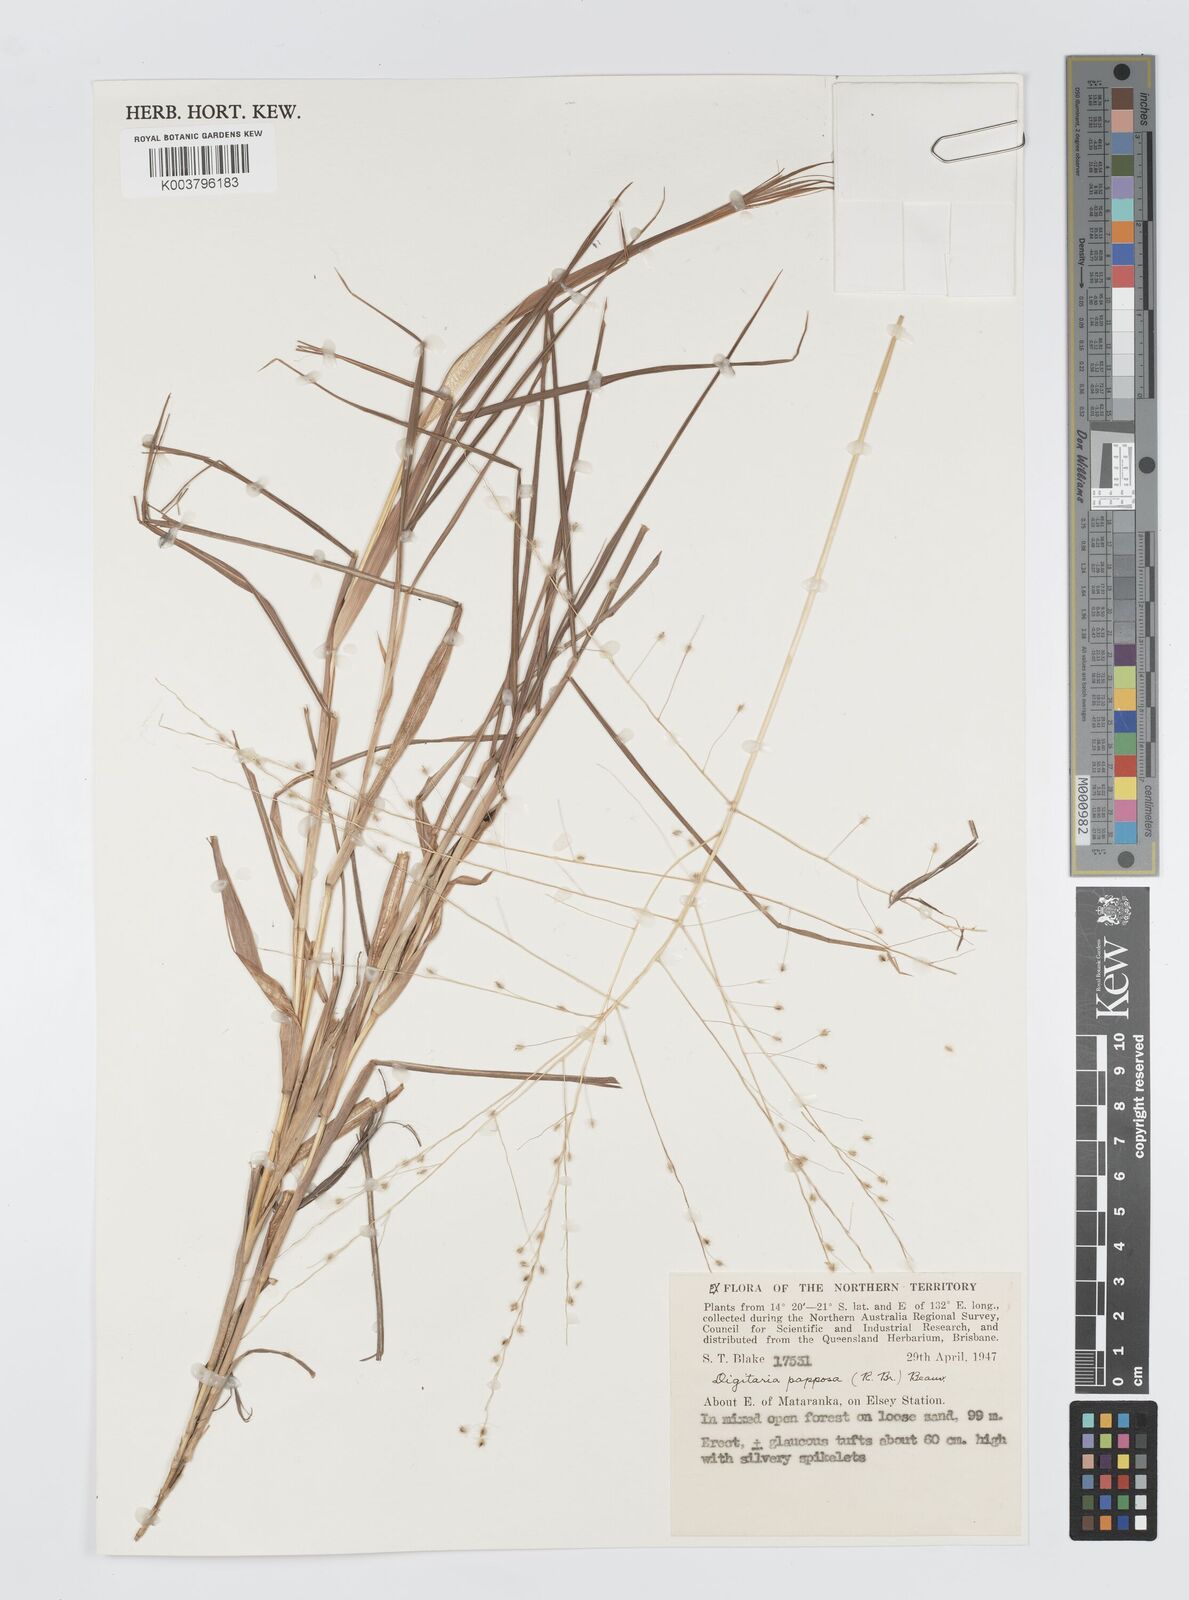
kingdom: Plantae
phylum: Tracheophyta
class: Liliopsida
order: Poales
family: Poaceae
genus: Digitaria
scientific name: Digitaria papposa
